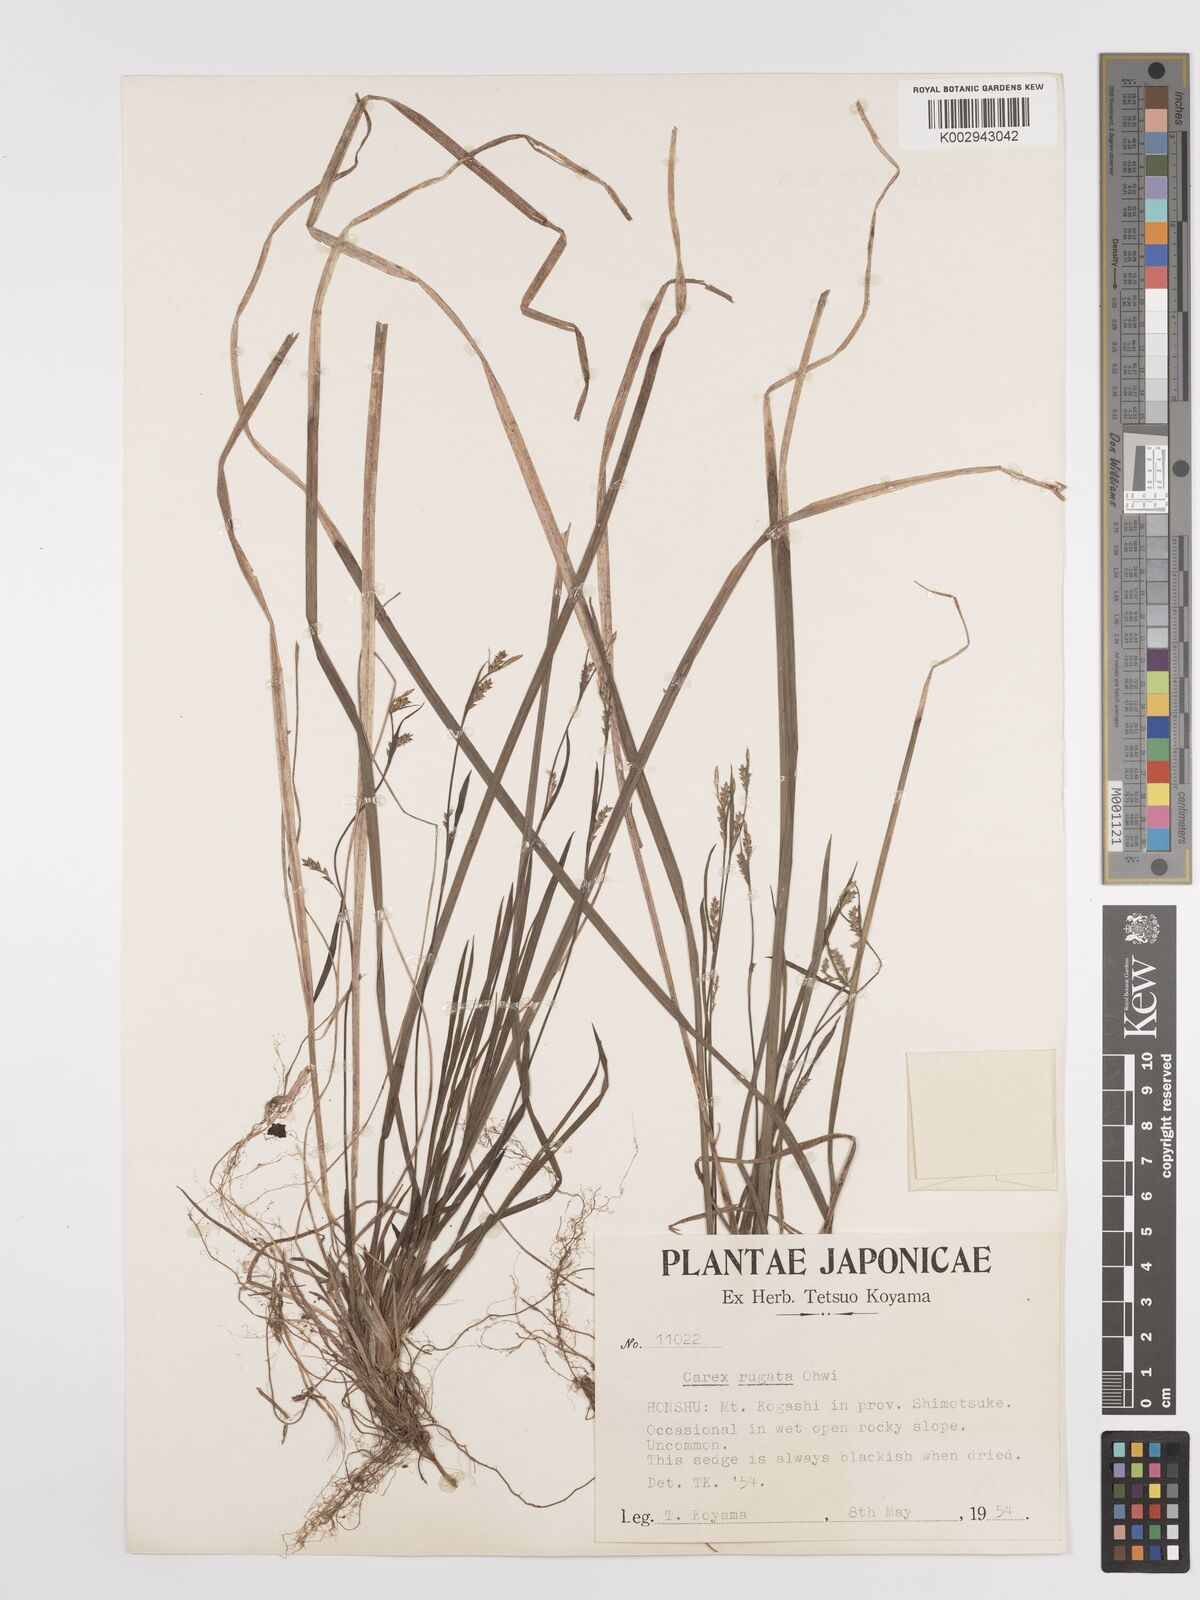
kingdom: Plantae
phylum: Tracheophyta
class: Liliopsida
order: Poales
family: Cyperaceae
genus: Carex
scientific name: Carex rugata
